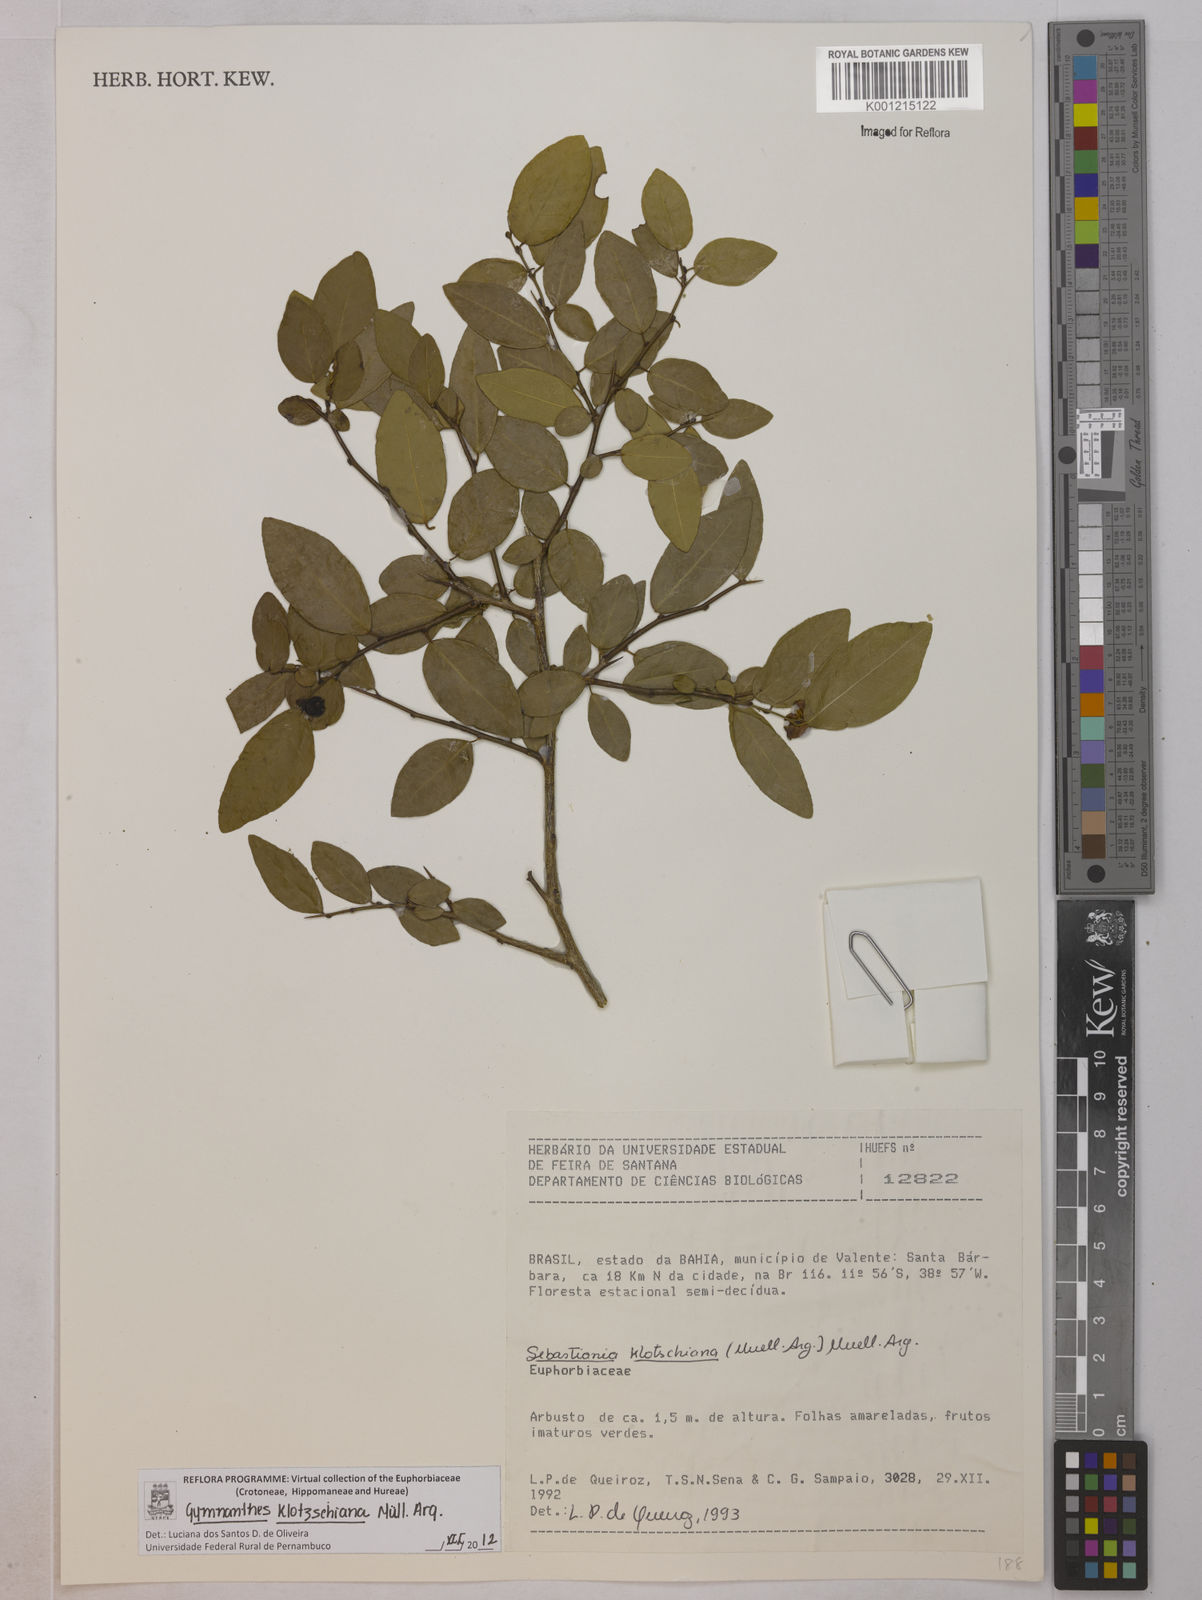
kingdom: Plantae
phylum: Tracheophyta
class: Magnoliopsida
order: Malpighiales
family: Euphorbiaceae
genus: Gymnanthes
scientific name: Gymnanthes
